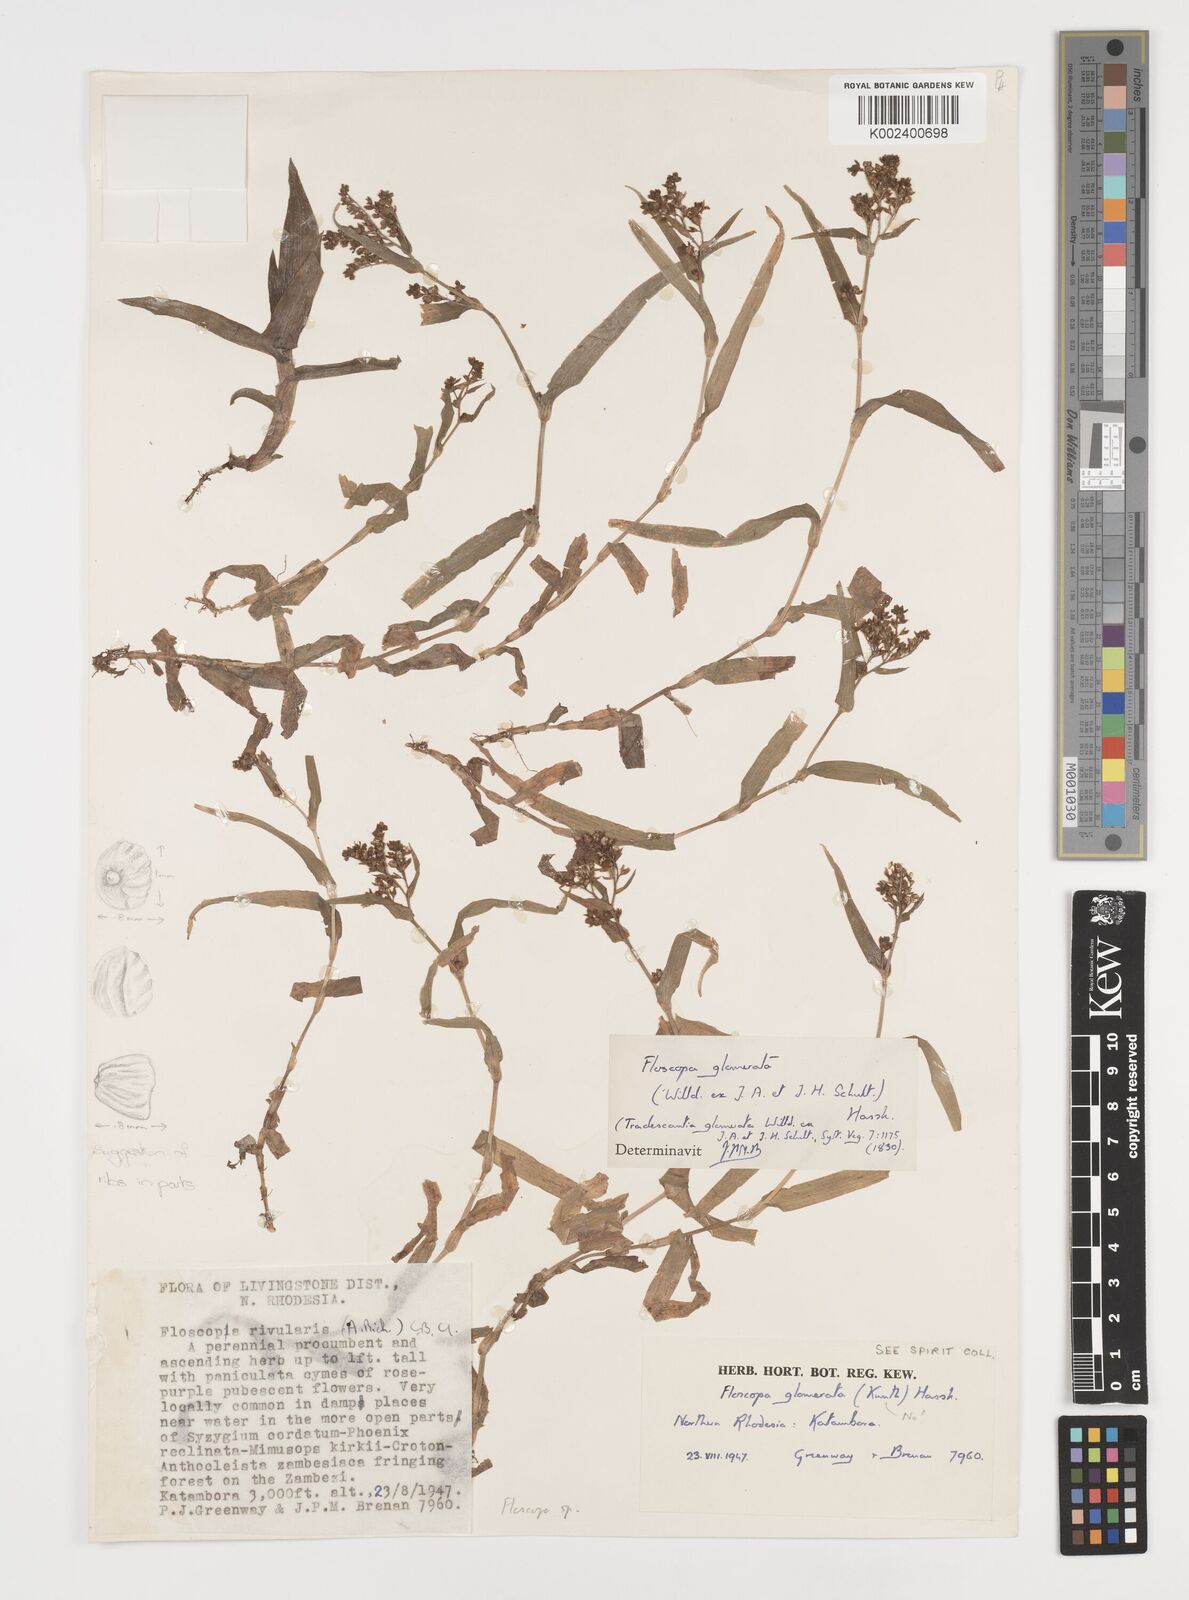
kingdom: Plantae
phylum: Tracheophyta
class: Liliopsida
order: Commelinales
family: Commelinaceae
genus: Floscopa
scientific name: Floscopa
